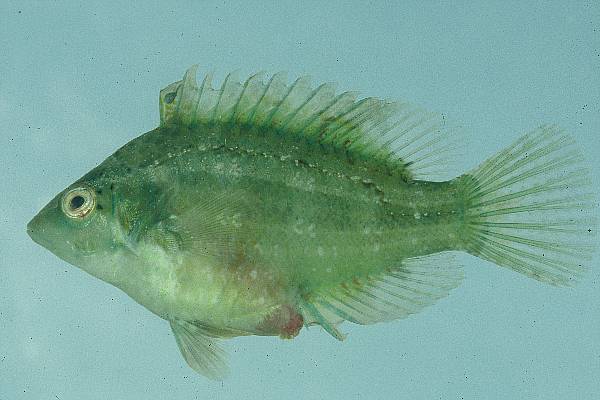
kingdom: Animalia
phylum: Chordata
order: Perciformes
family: Labridae
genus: Pteragogus
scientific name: Pteragogus taeniops
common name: Cheekbar wrasse
